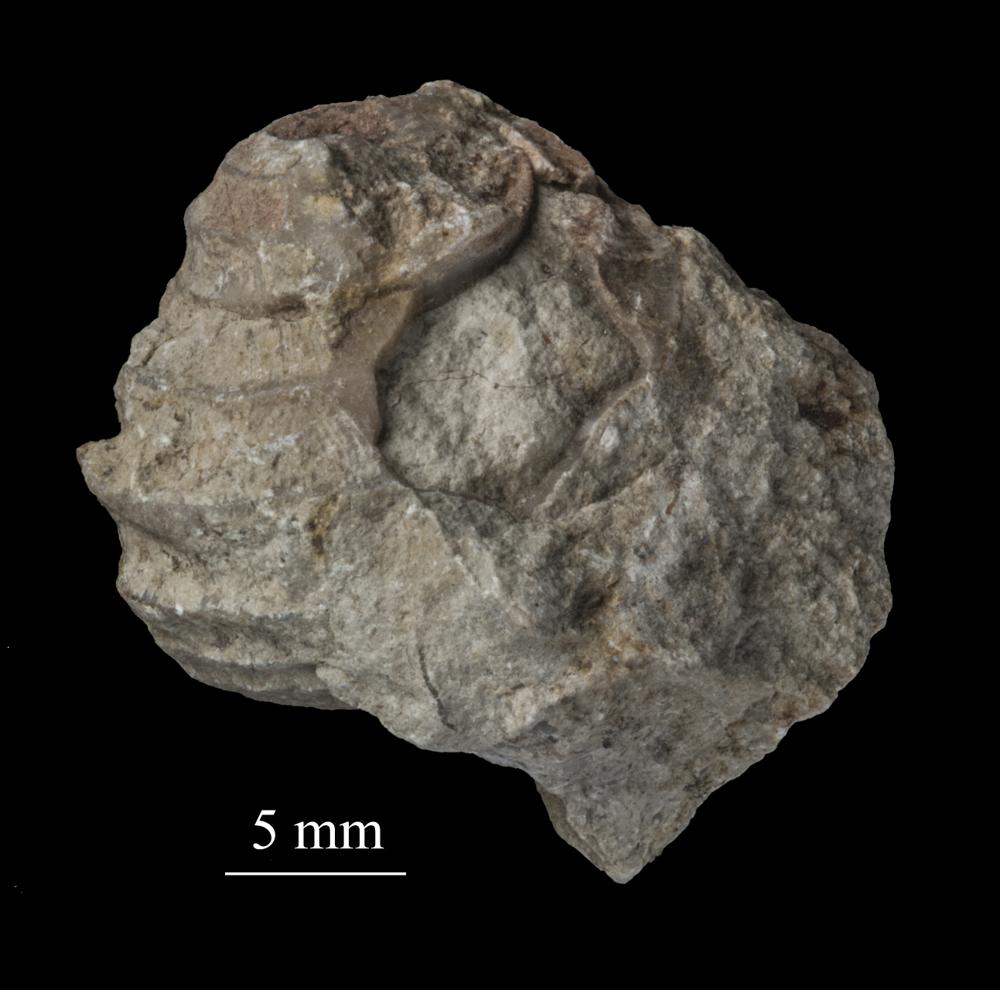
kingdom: Animalia
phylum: Mollusca
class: Gastropoda
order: Trochida
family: Trochidae
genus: Trochus
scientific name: Trochus
